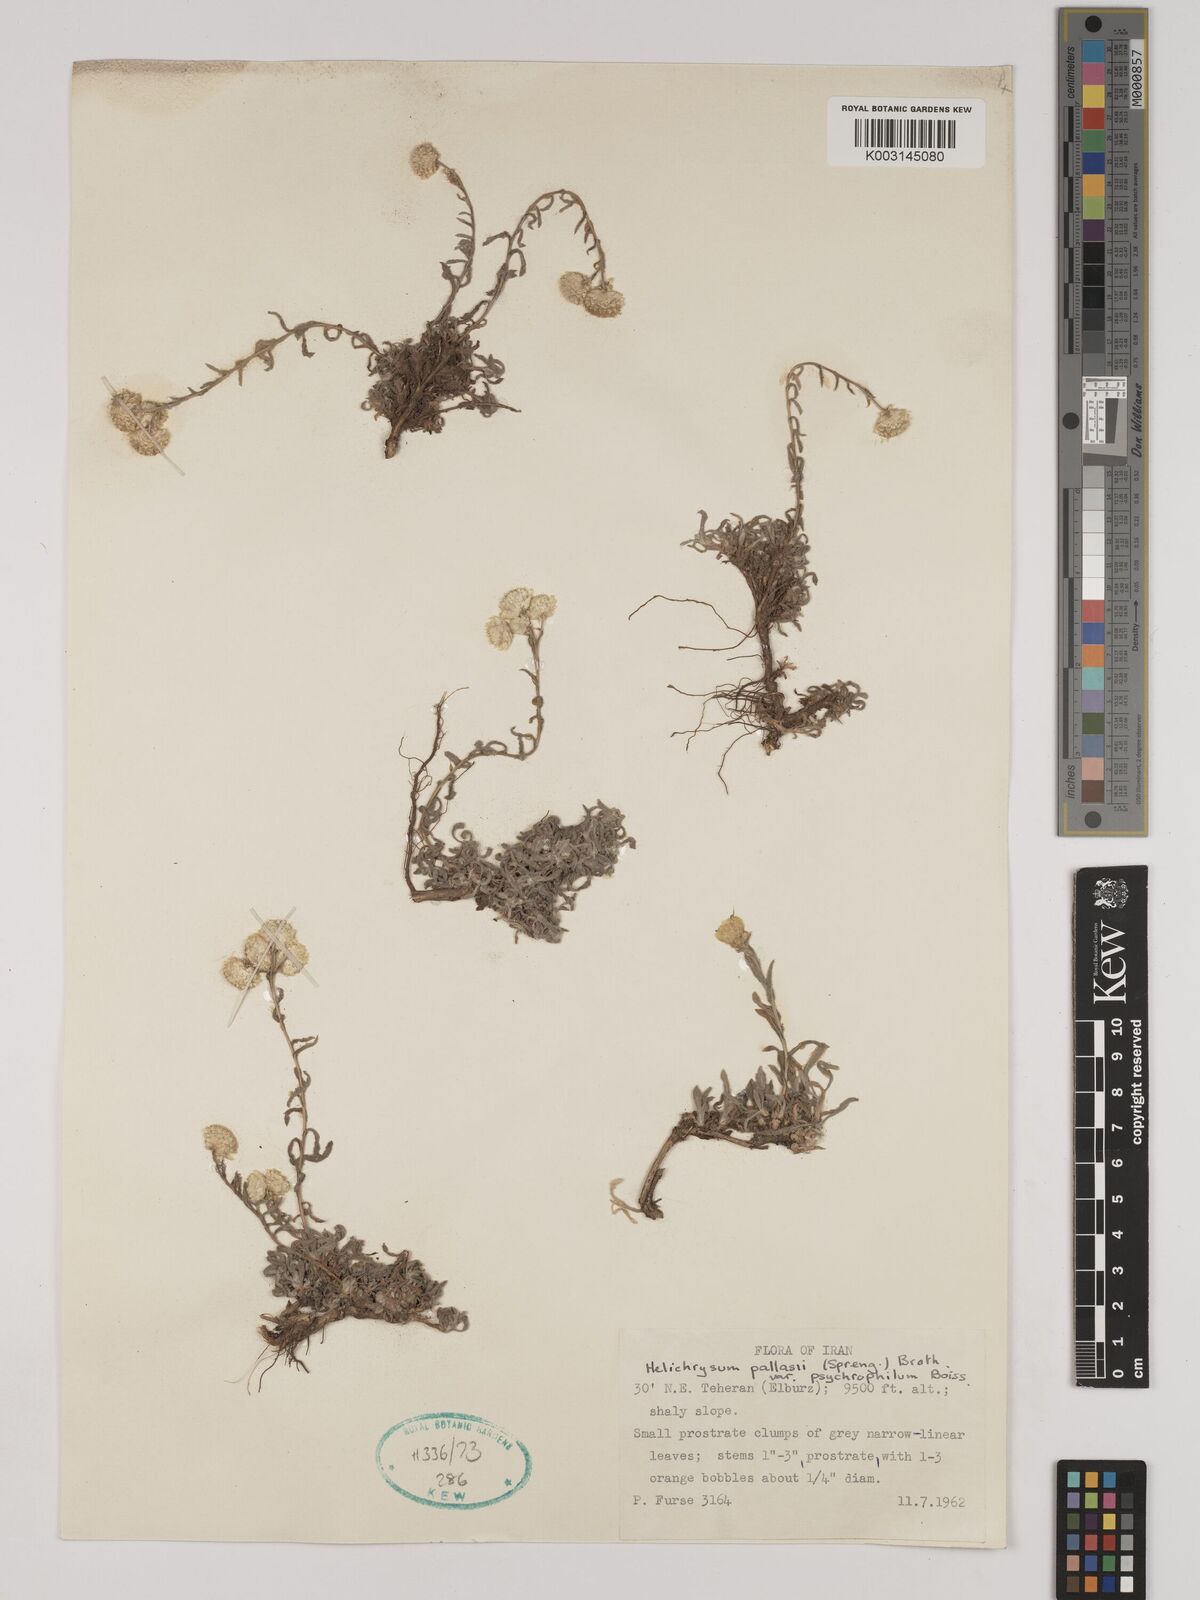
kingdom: Plantae
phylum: Tracheophyta
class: Magnoliopsida
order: Asterales
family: Asteraceae
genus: Helichrysum
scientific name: Helichrysum pallasii
